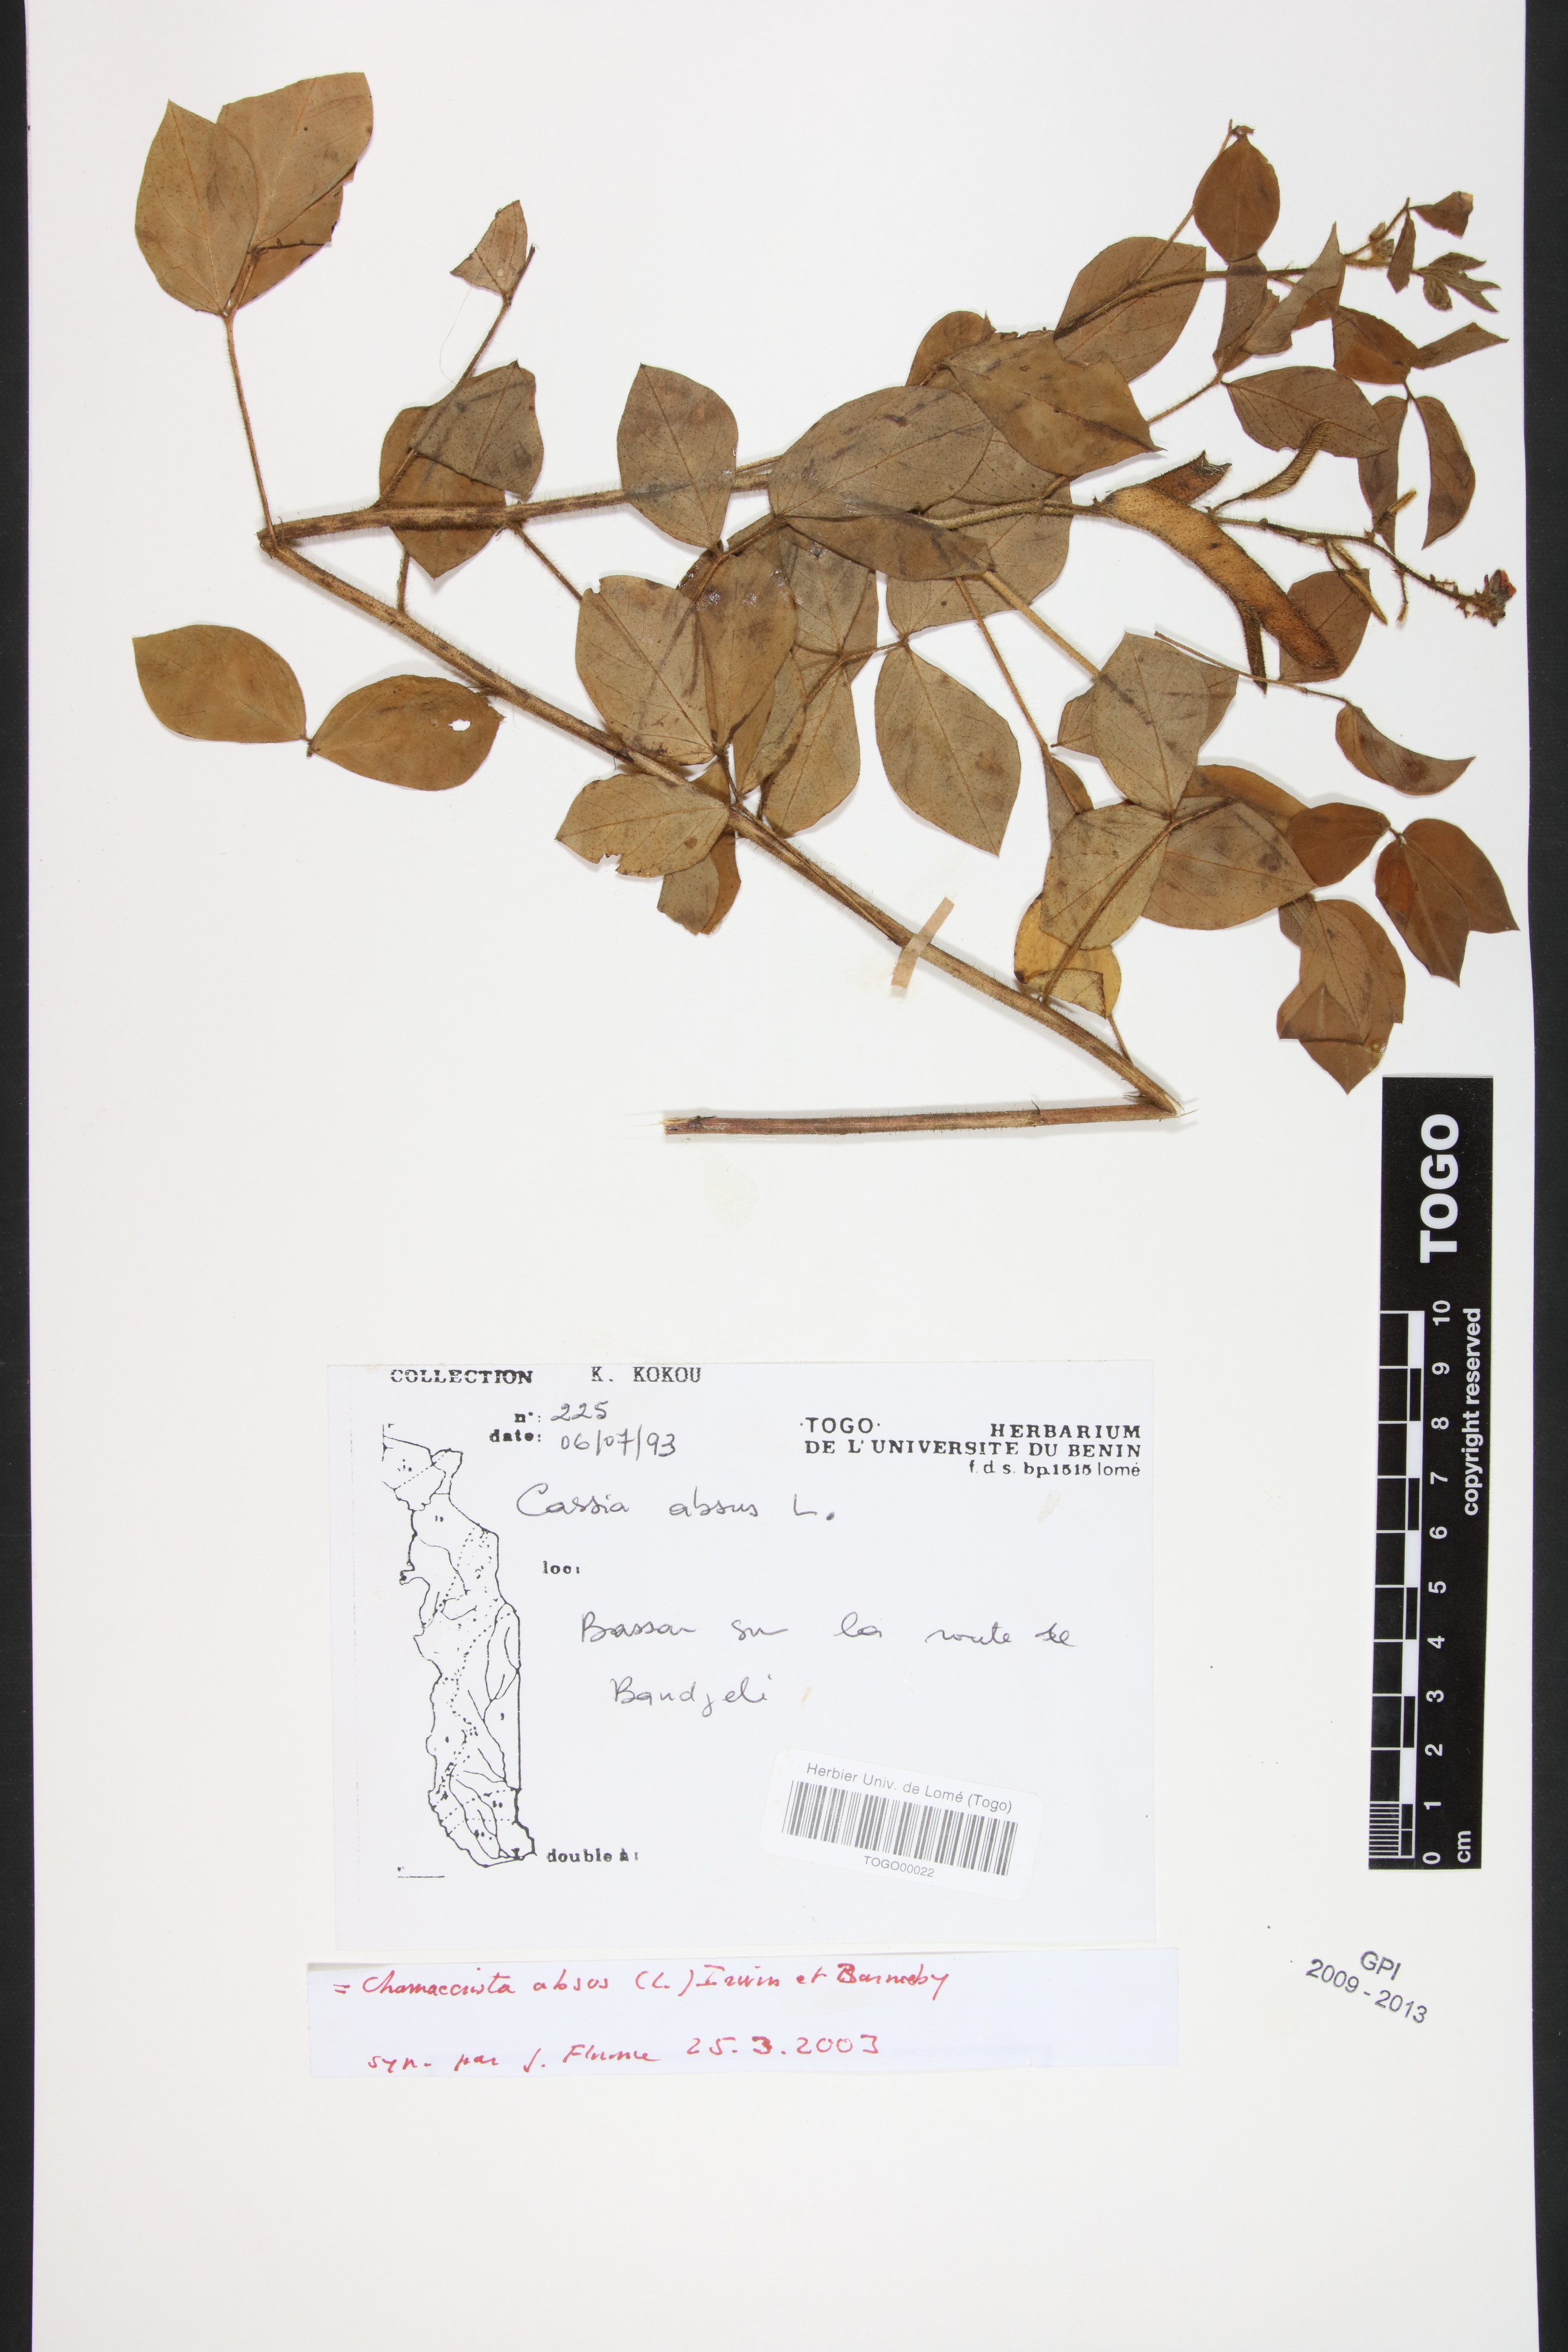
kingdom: Plantae
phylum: Tracheophyta
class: Magnoliopsida
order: Fabales
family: Fabaceae
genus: Chamaecrista
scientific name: Chamaecrista absus
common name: Tropical sensitive pea
